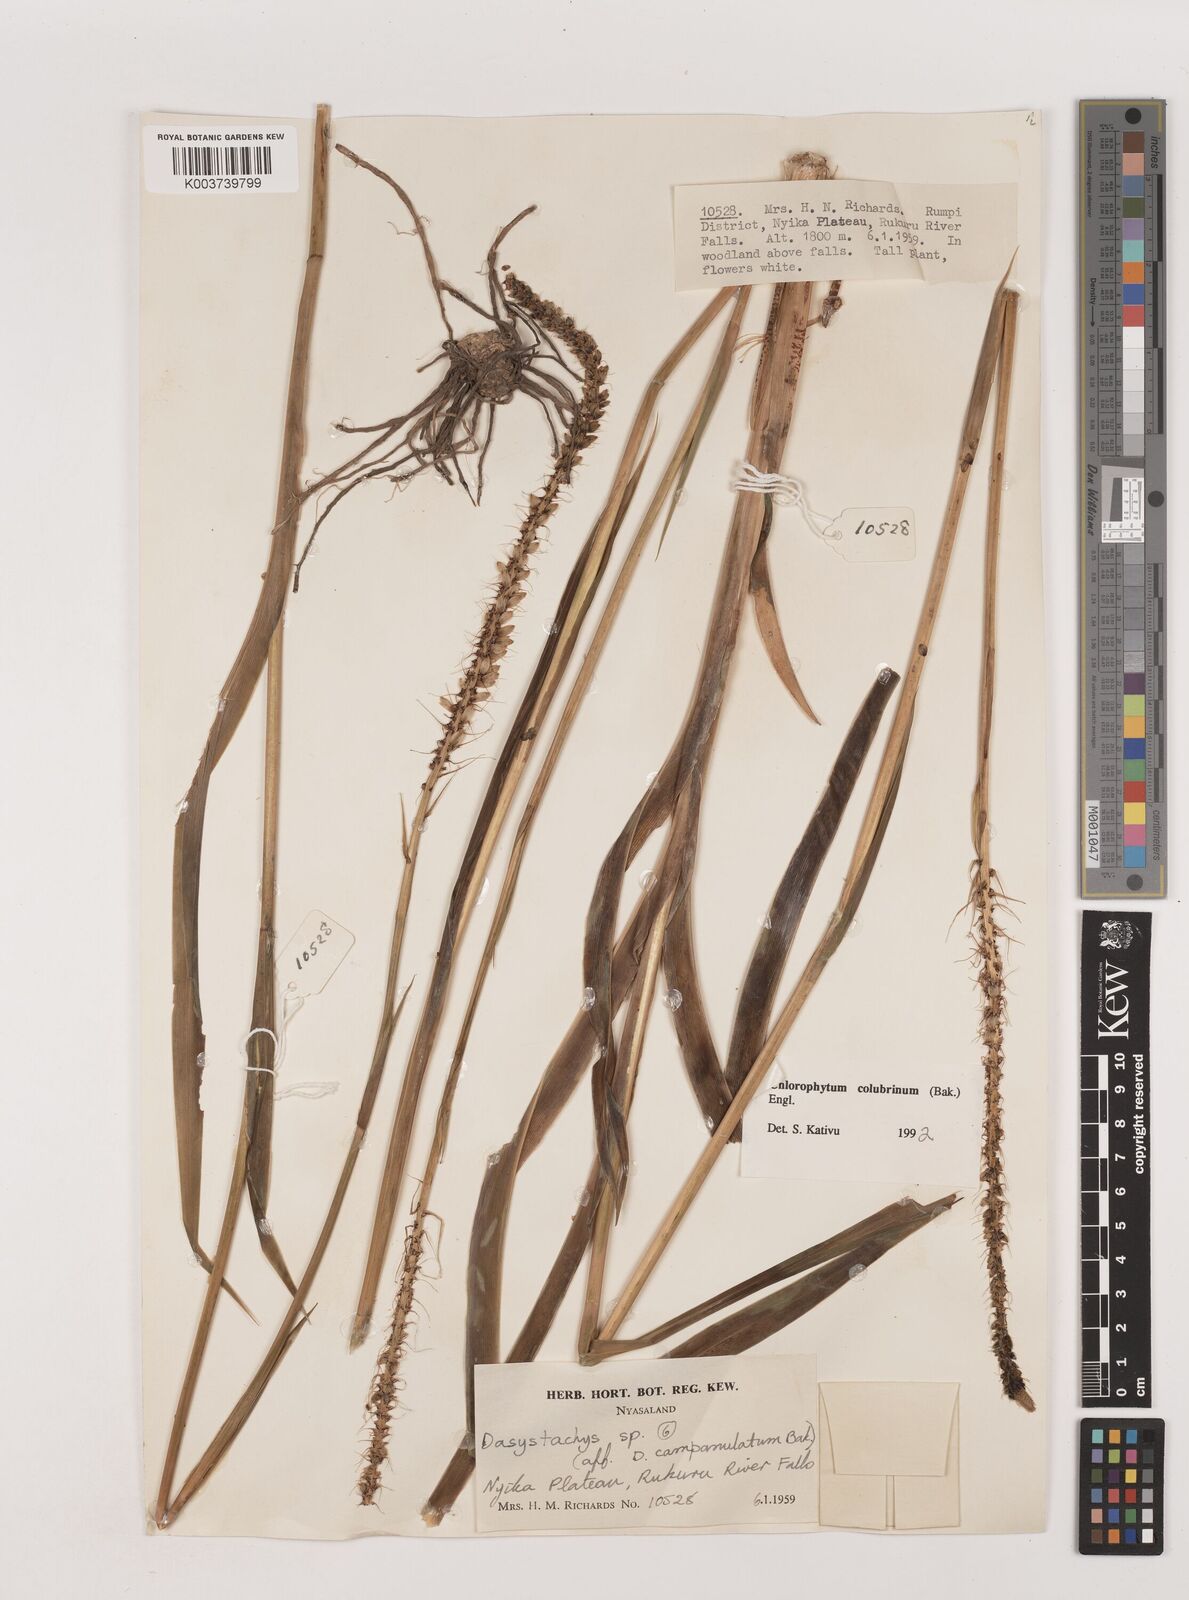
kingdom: Plantae
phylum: Tracheophyta
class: Liliopsida
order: Asparagales
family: Asparagaceae
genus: Chlorophytum
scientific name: Chlorophytum colubrinum
